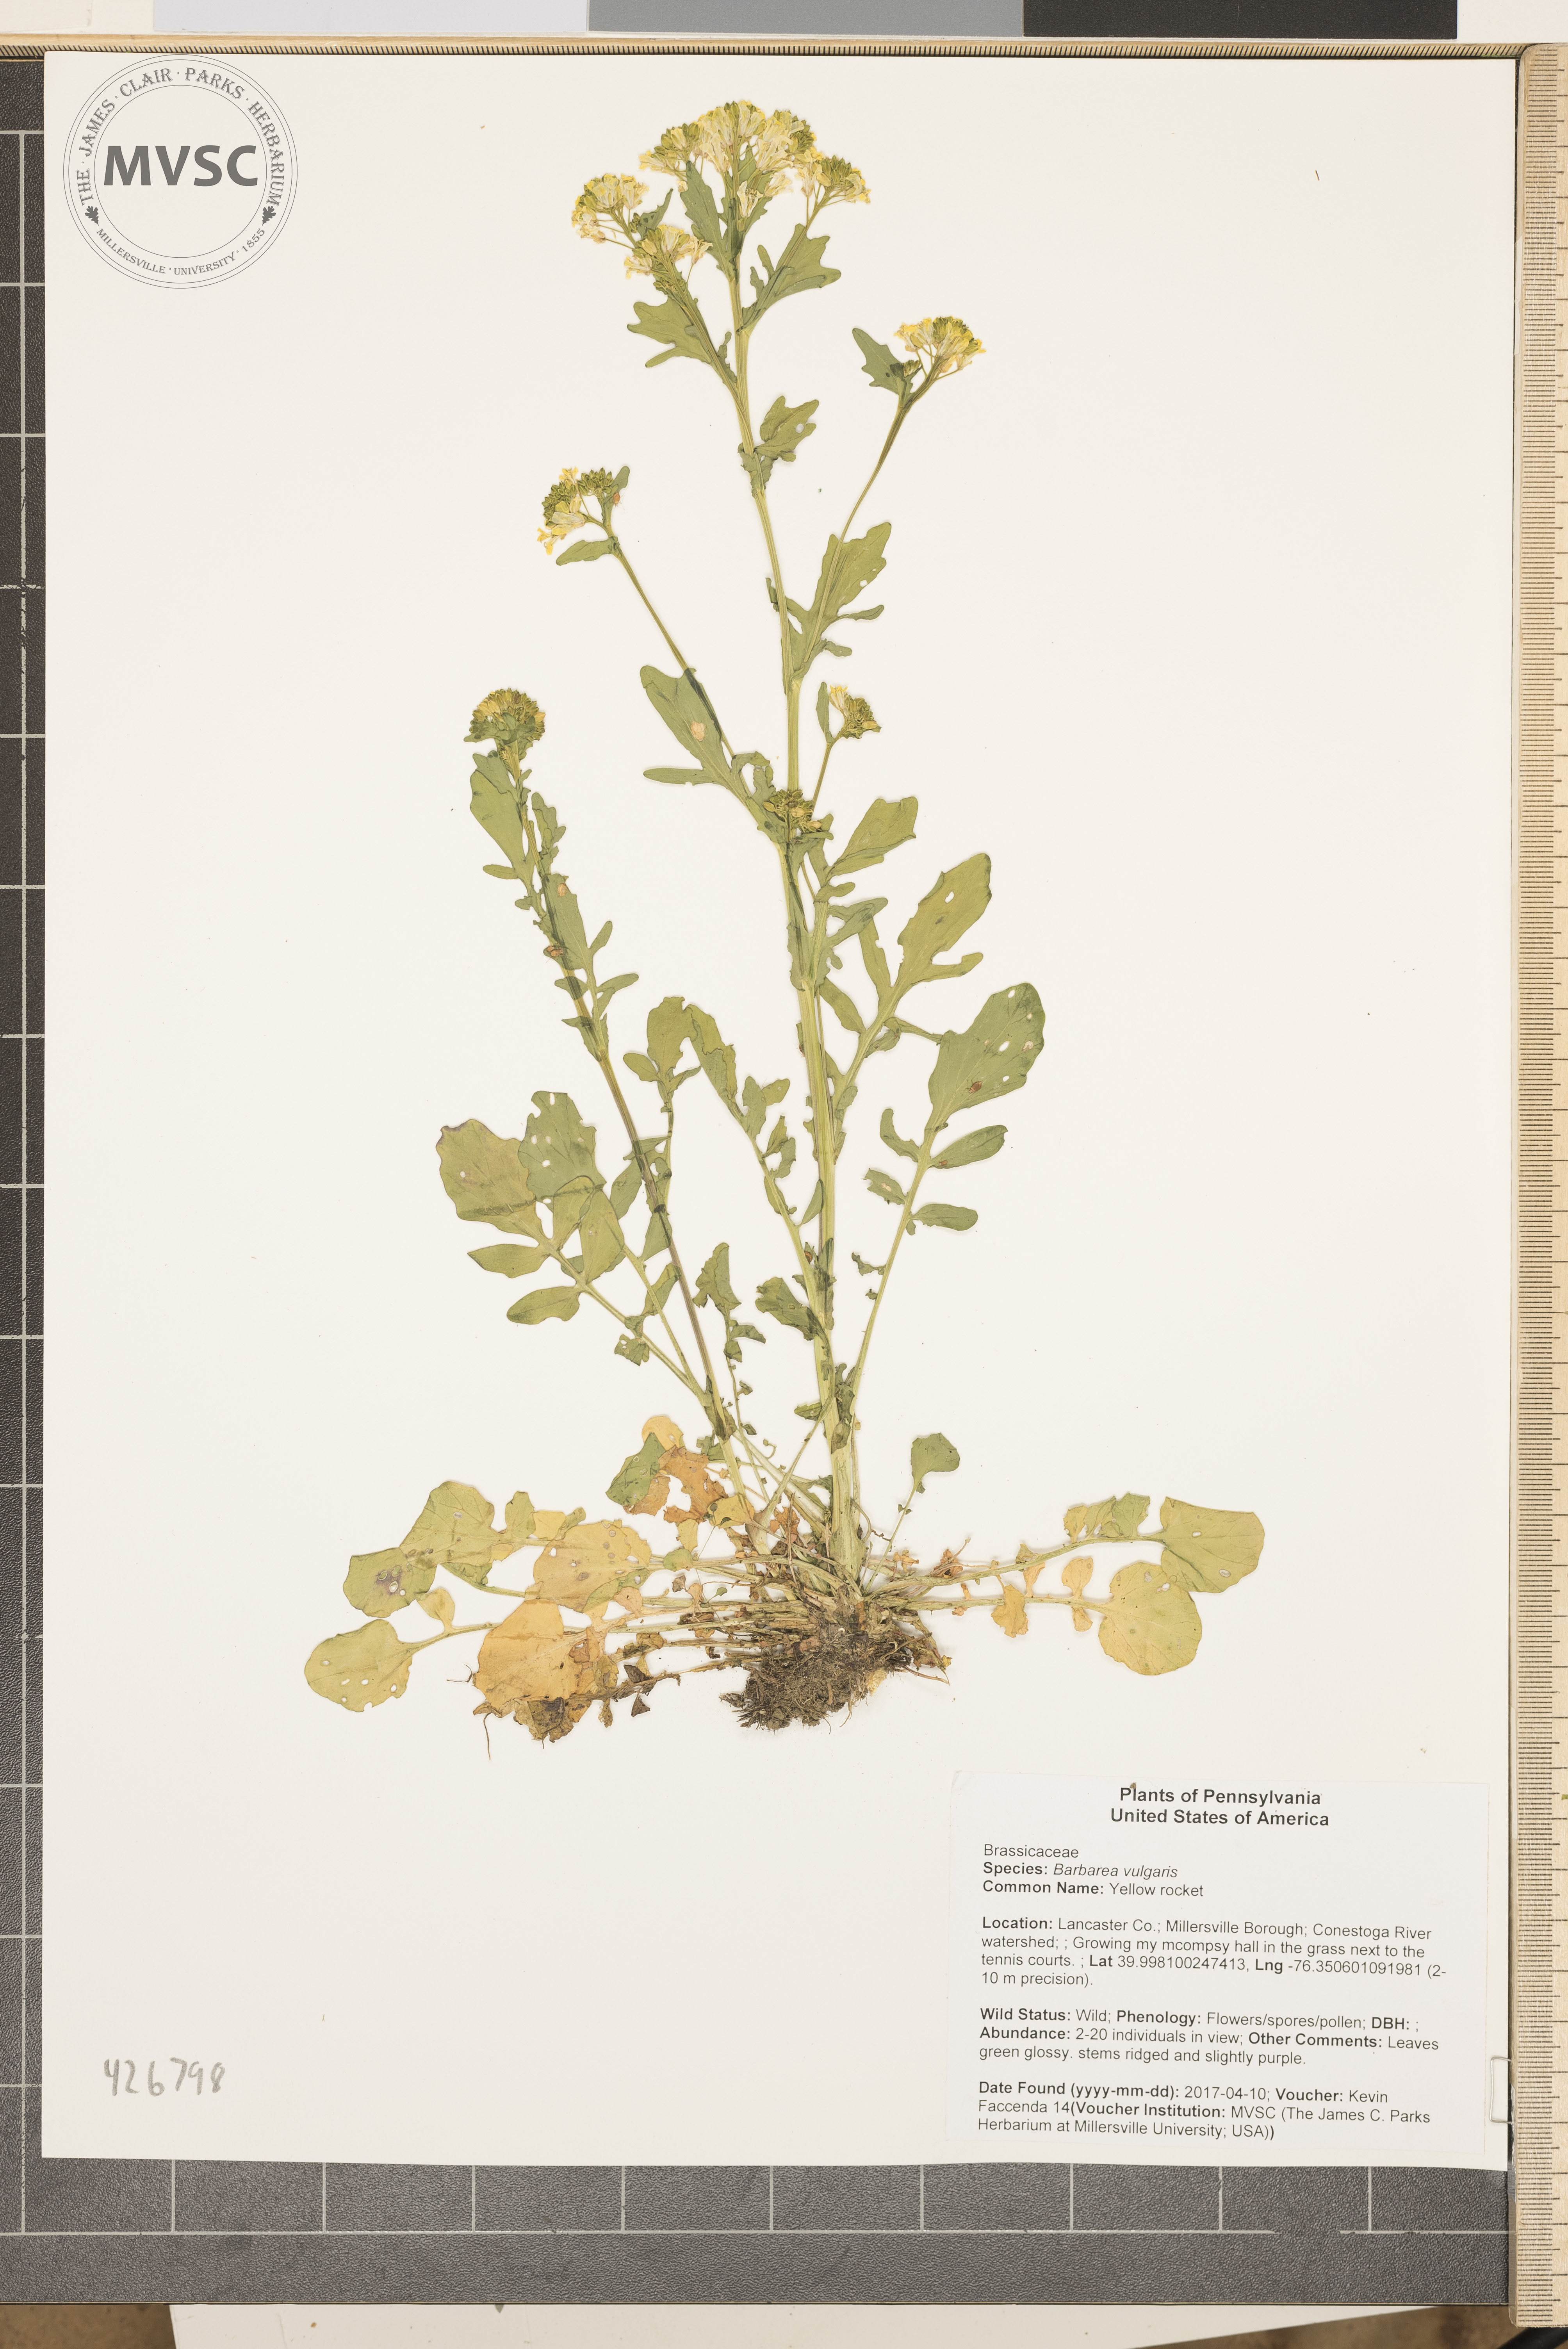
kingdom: Plantae
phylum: Tracheophyta
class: Magnoliopsida
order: Brassicales
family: Brassicaceae
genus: Barbarea
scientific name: Barbarea vulgaris
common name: Yellow rocket
